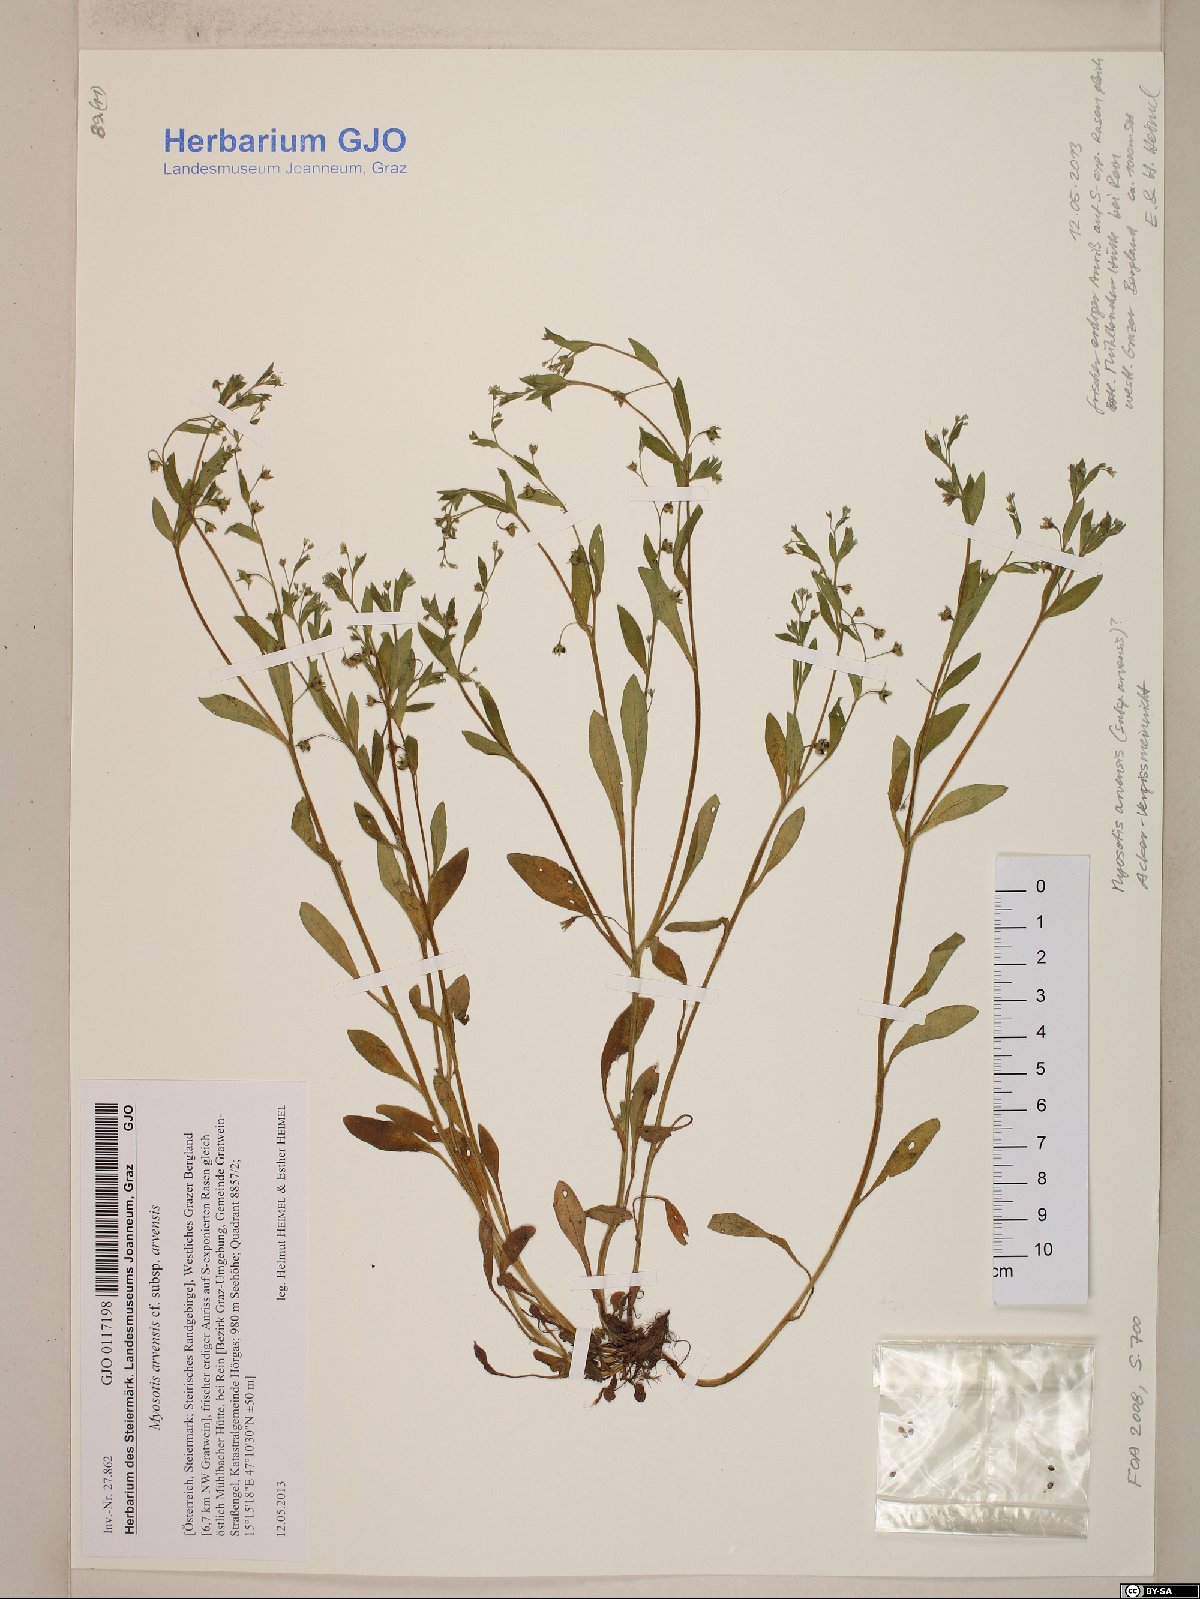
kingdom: Plantae
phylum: Tracheophyta
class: Magnoliopsida
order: Boraginales
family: Boraginaceae
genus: Myosotis
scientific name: Myosotis arvensis
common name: Field forget-me-not
